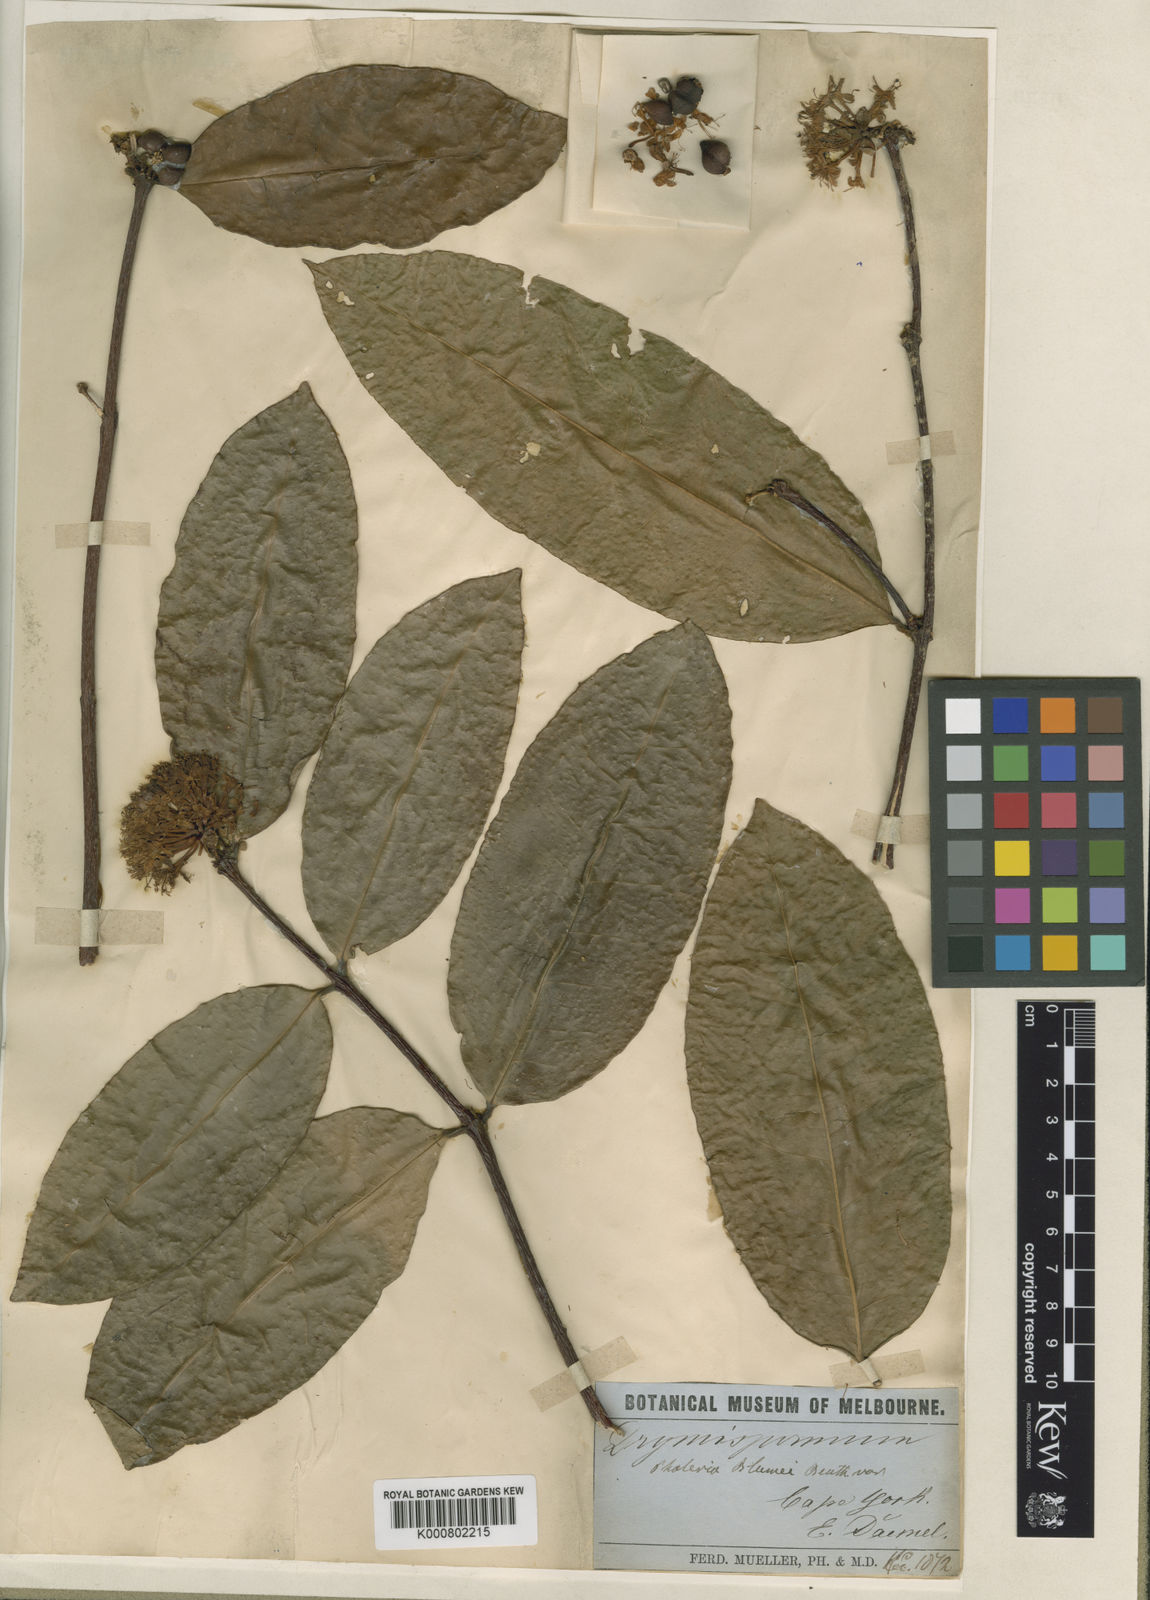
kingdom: Plantae
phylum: Tracheophyta
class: Magnoliopsida
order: Malvales
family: Thymelaeaceae
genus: Phaleria
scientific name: Phaleria
